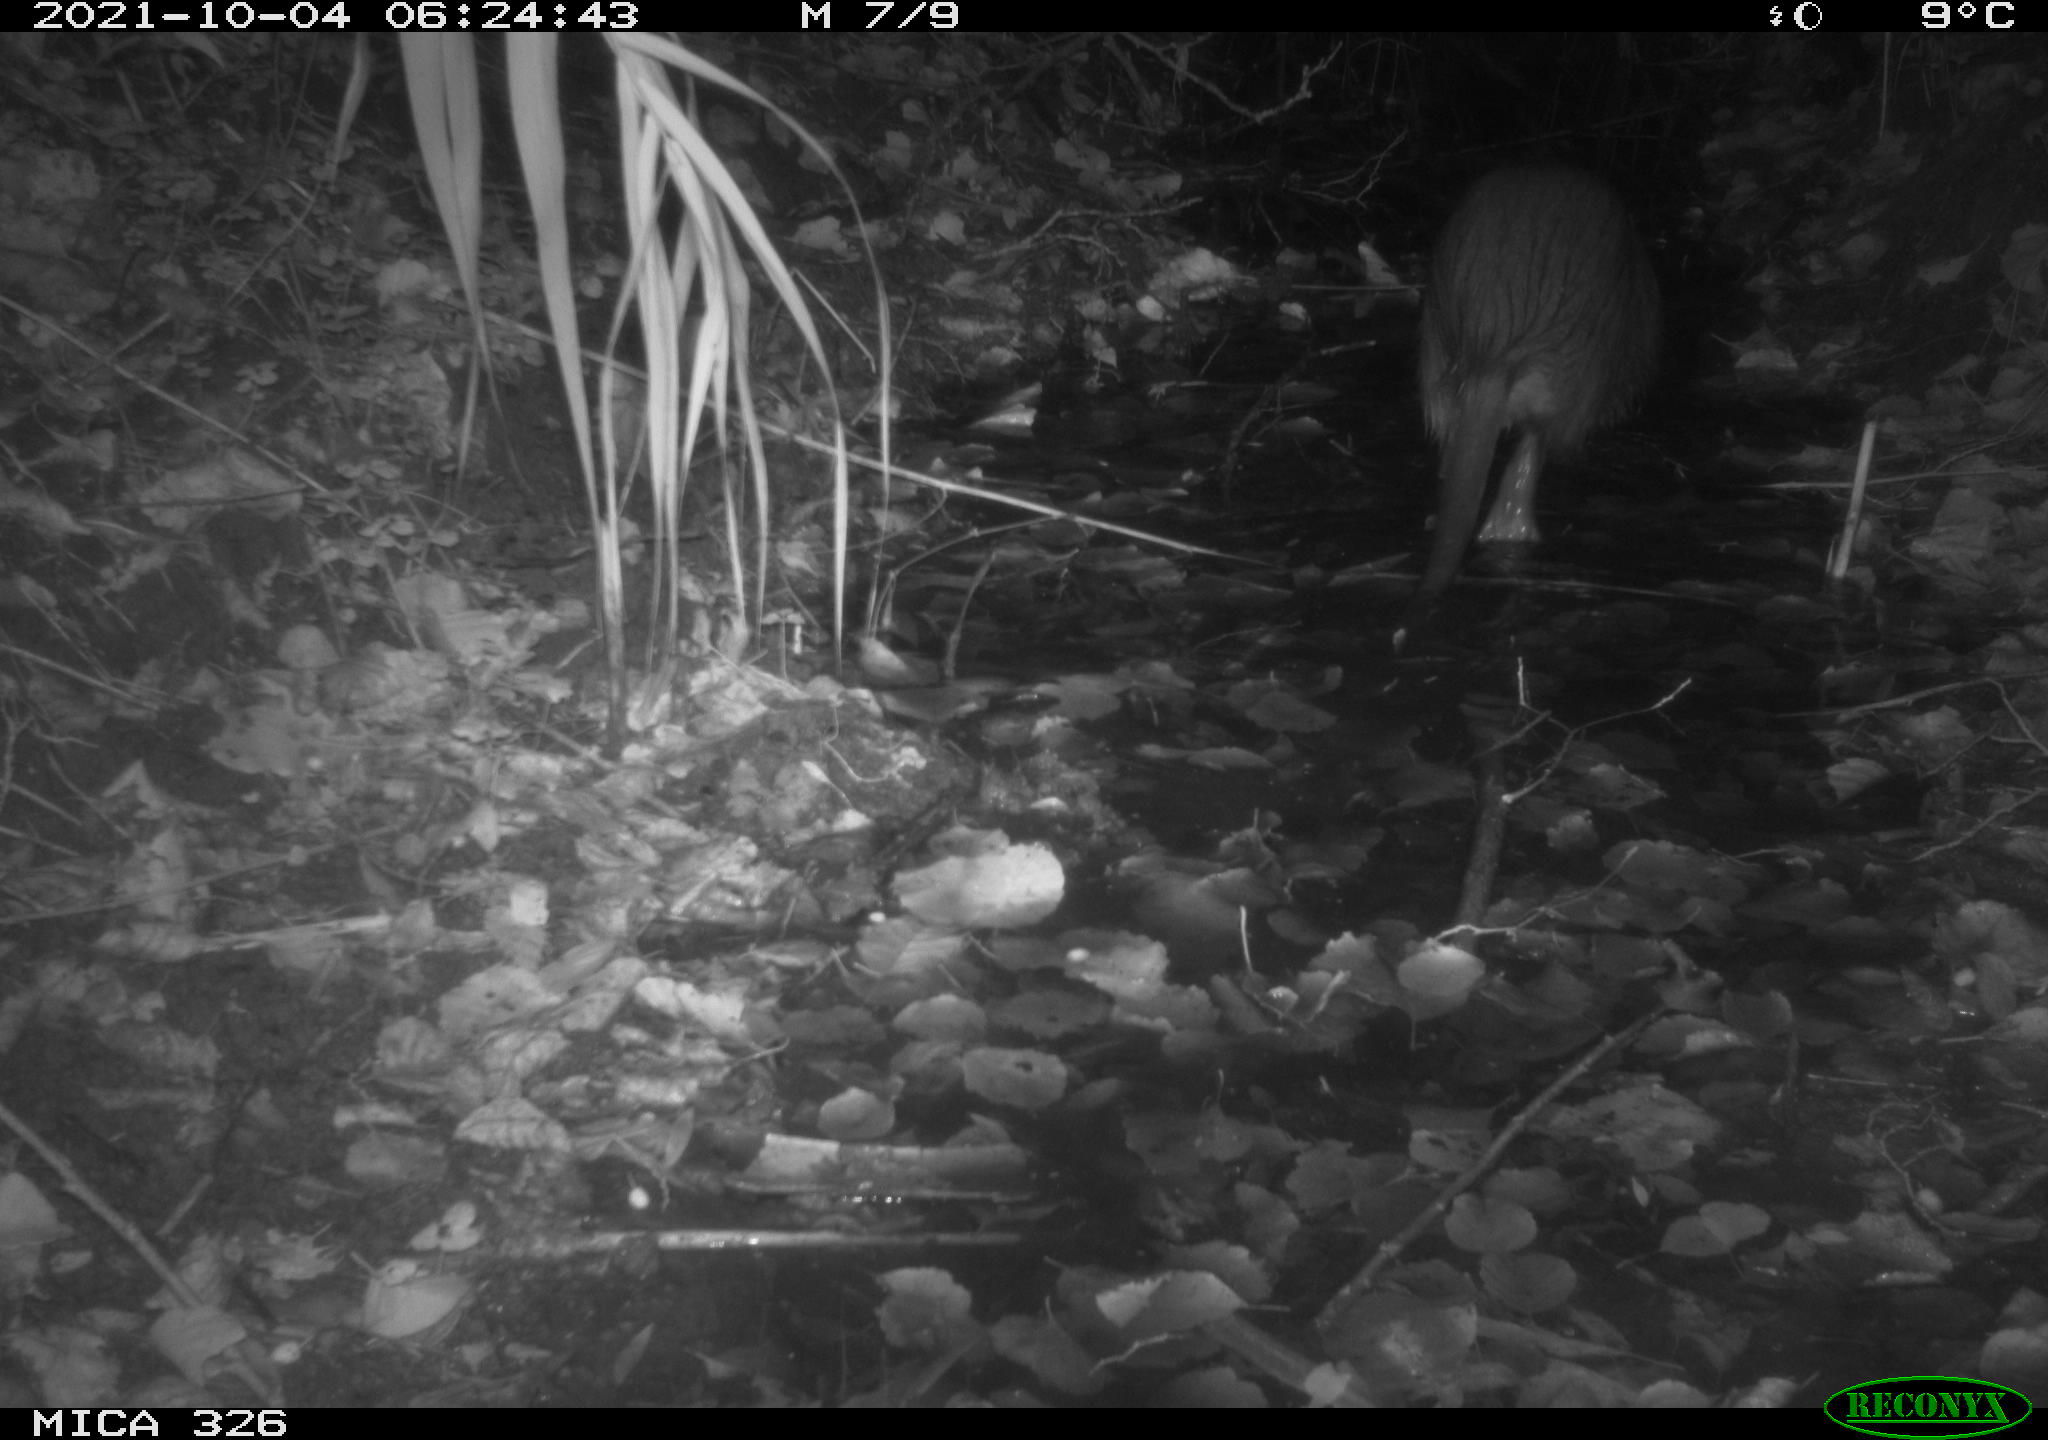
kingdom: Animalia
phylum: Chordata
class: Mammalia
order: Rodentia
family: Myocastoridae
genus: Myocastor
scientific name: Myocastor coypus
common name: Coypu
